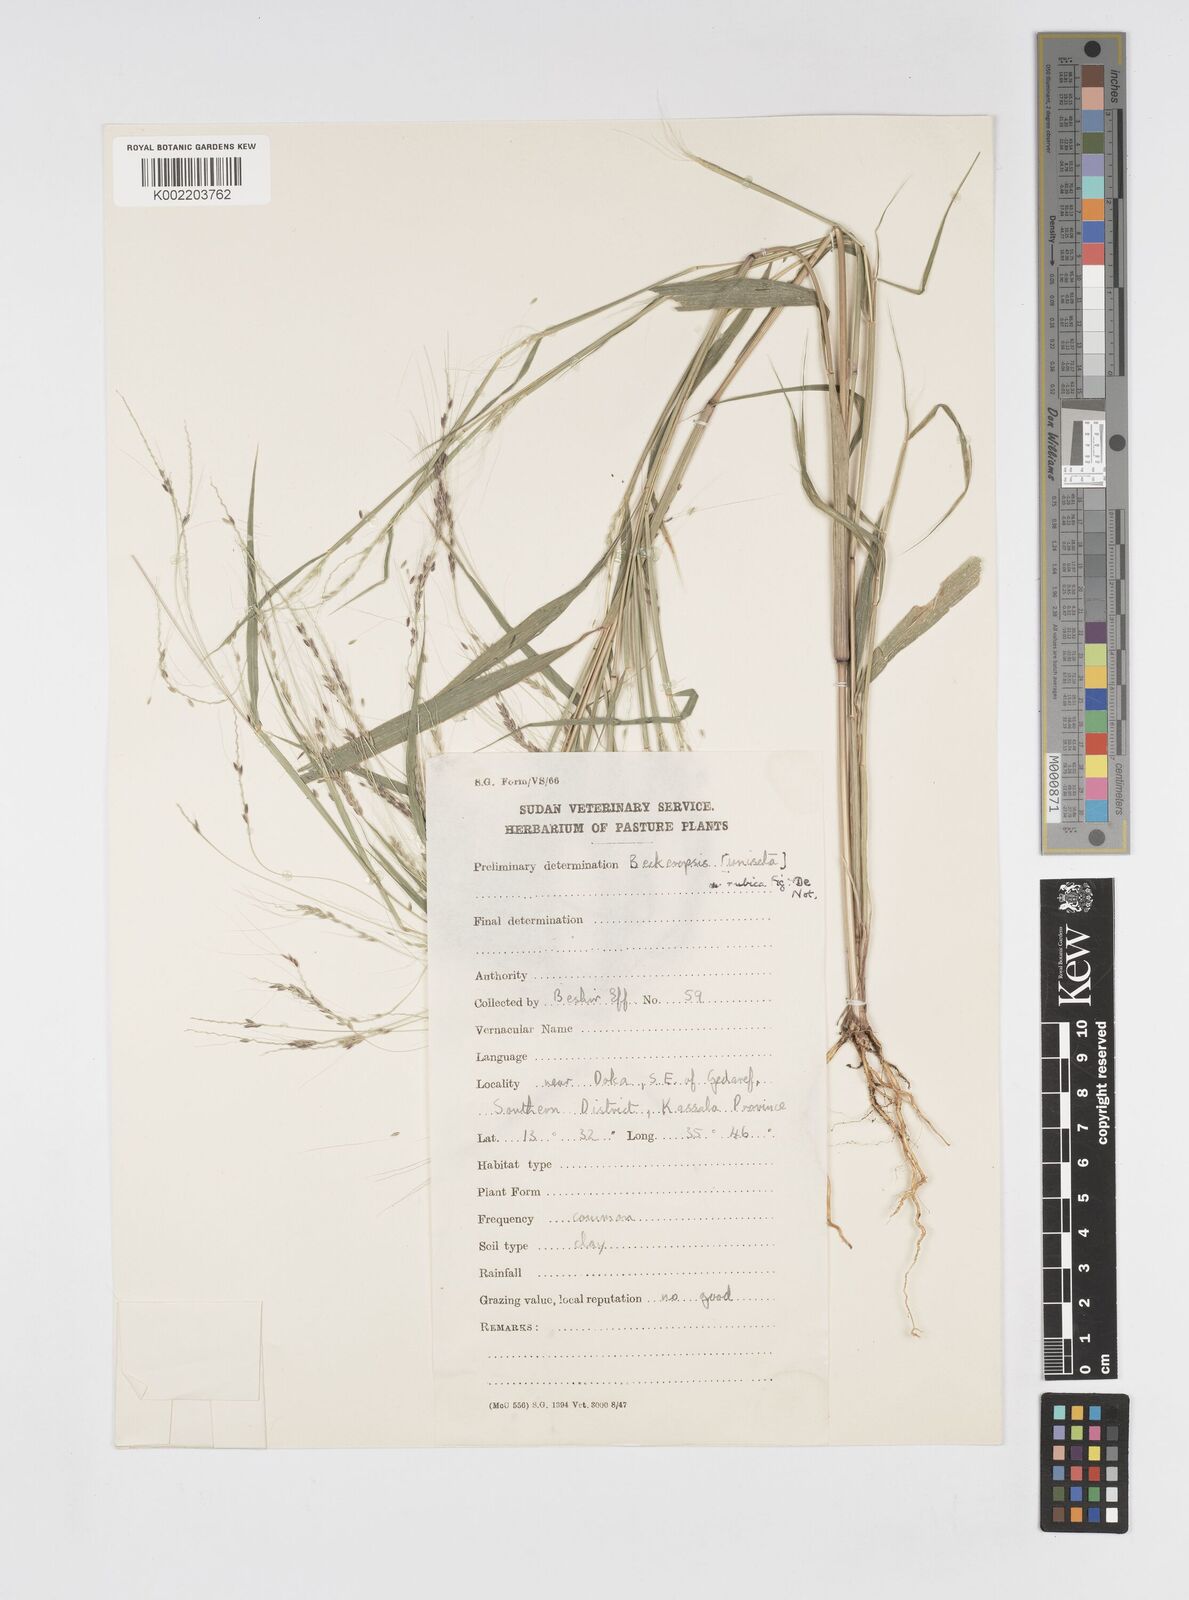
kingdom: Plantae
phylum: Tracheophyta
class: Liliopsida
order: Poales
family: Poaceae
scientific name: Poaceae
